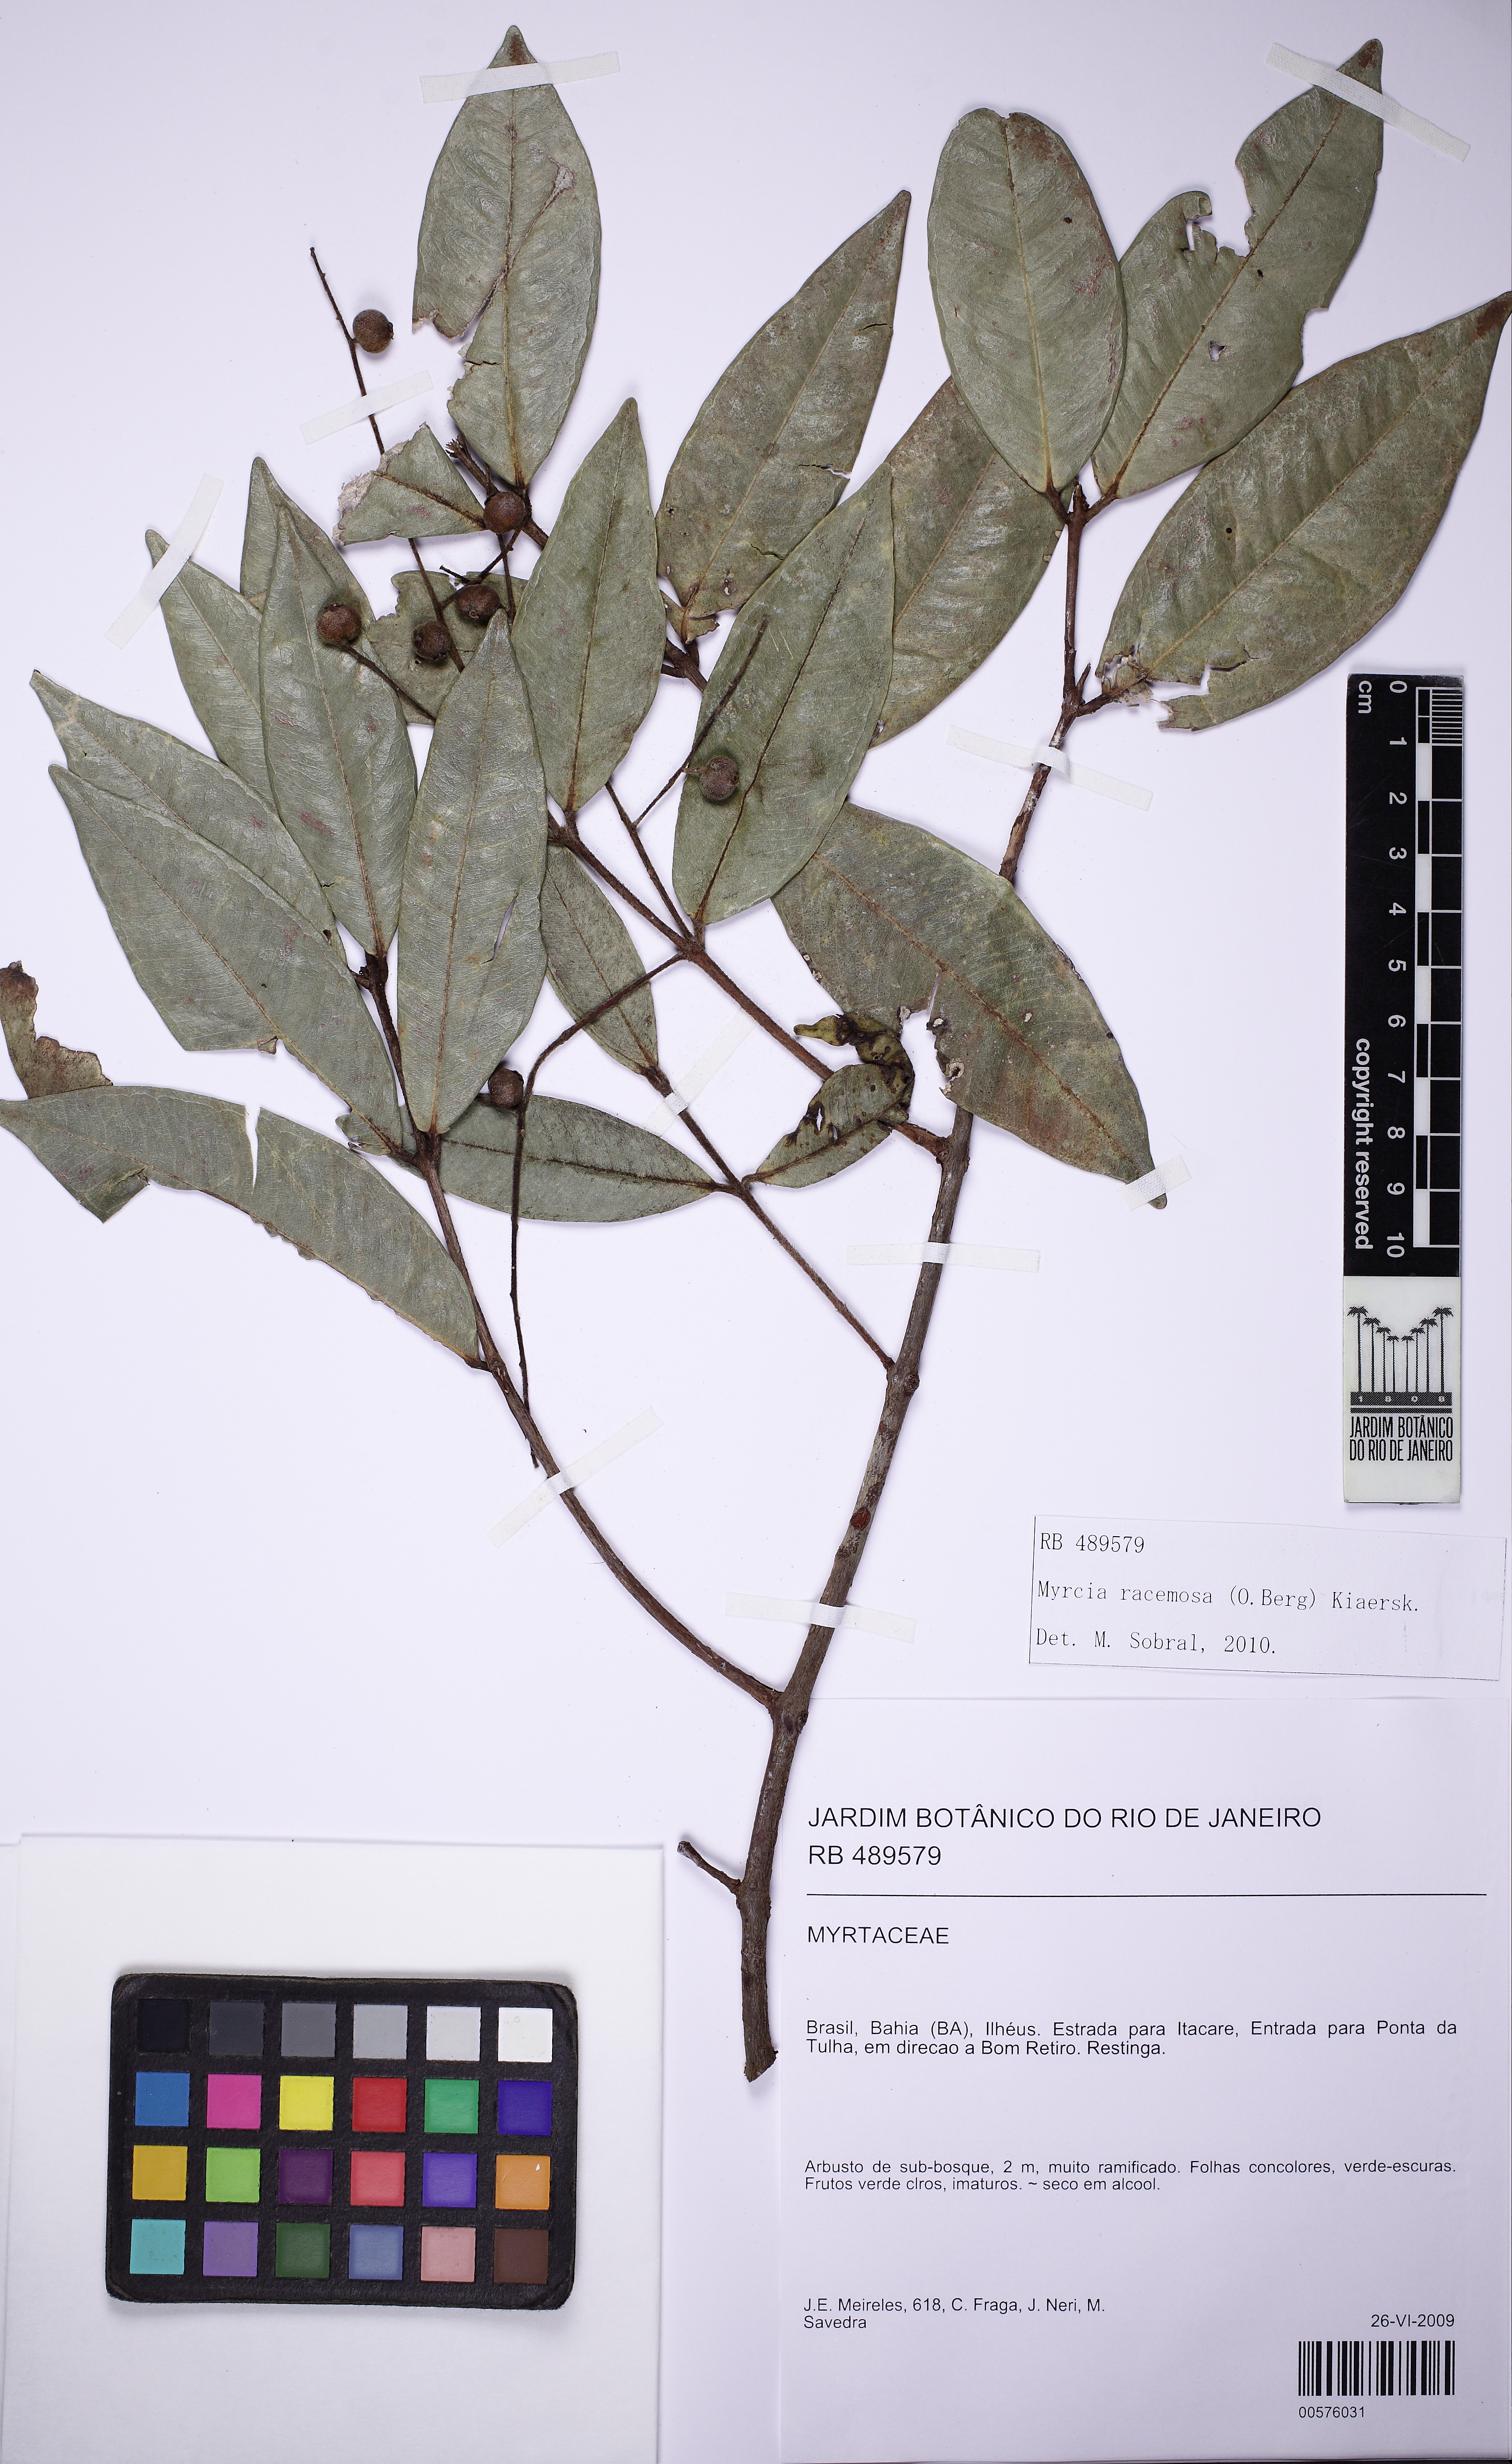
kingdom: Plantae
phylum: Tracheophyta
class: Magnoliopsida
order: Myrtales
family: Myrtaceae
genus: Myrcia
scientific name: Myrcia tomentosa
